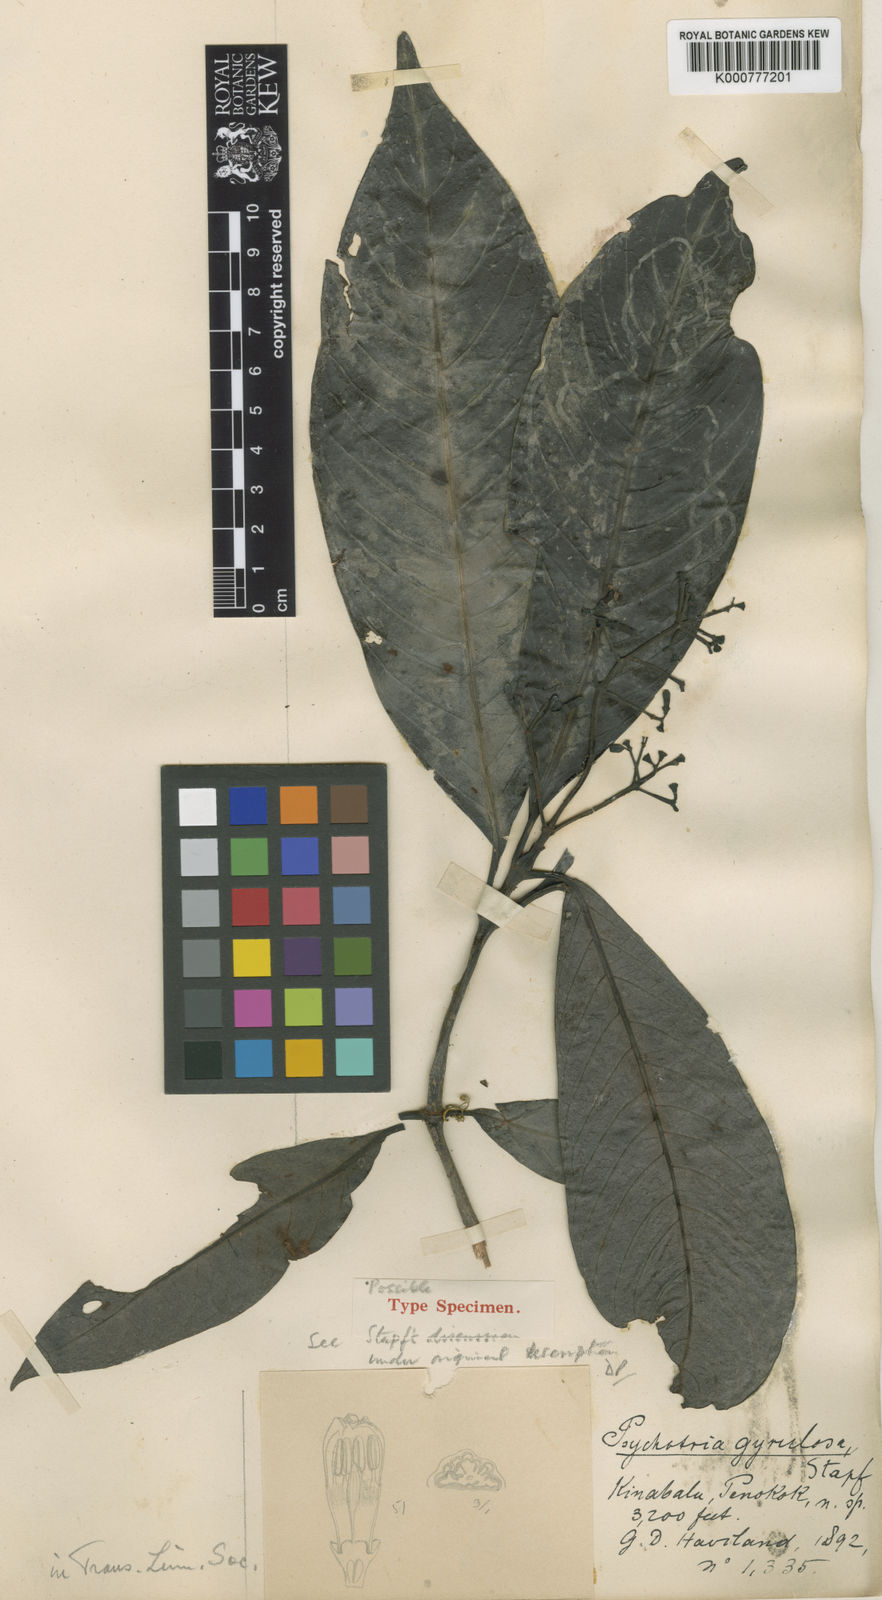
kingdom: Plantae
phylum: Tracheophyta
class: Magnoliopsida
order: Gentianales
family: Rubiaceae
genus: Psychotria
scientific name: Psychotria gyrulosa
